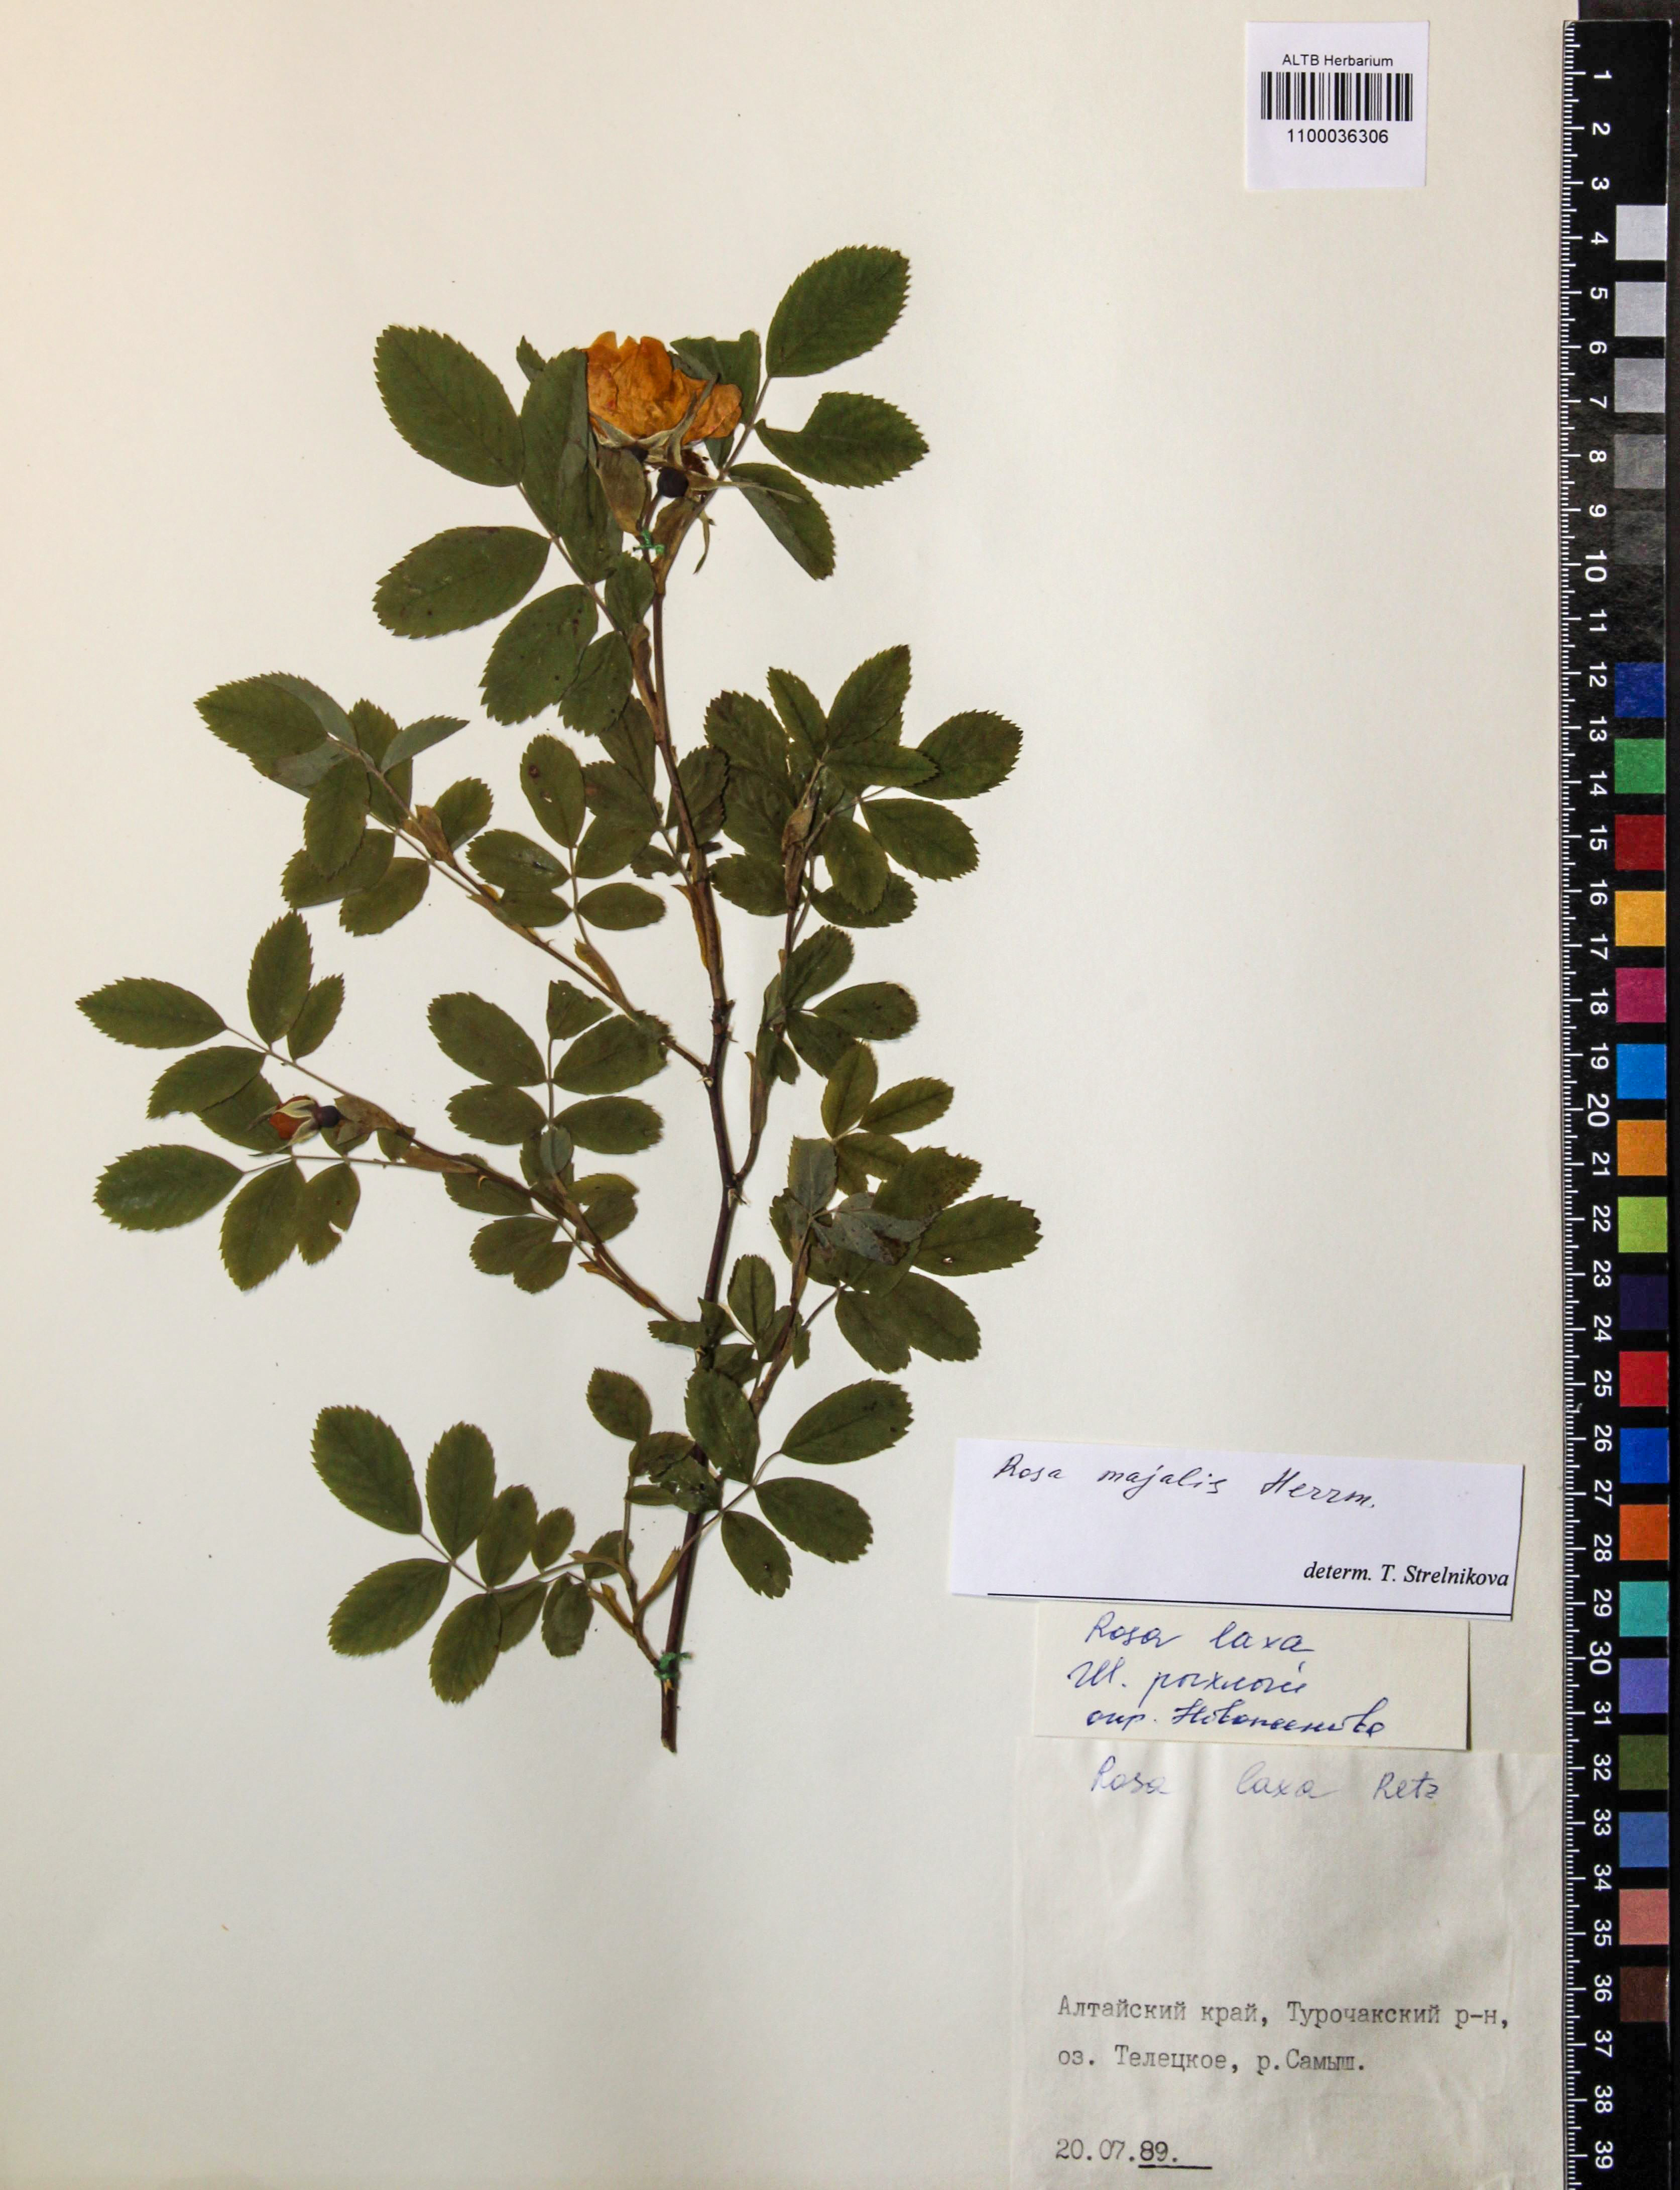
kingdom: Plantae
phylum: Tracheophyta
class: Magnoliopsida
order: Rosales
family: Rosaceae
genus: Rosa
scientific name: Rosa majalis
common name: Cinnamon rose
